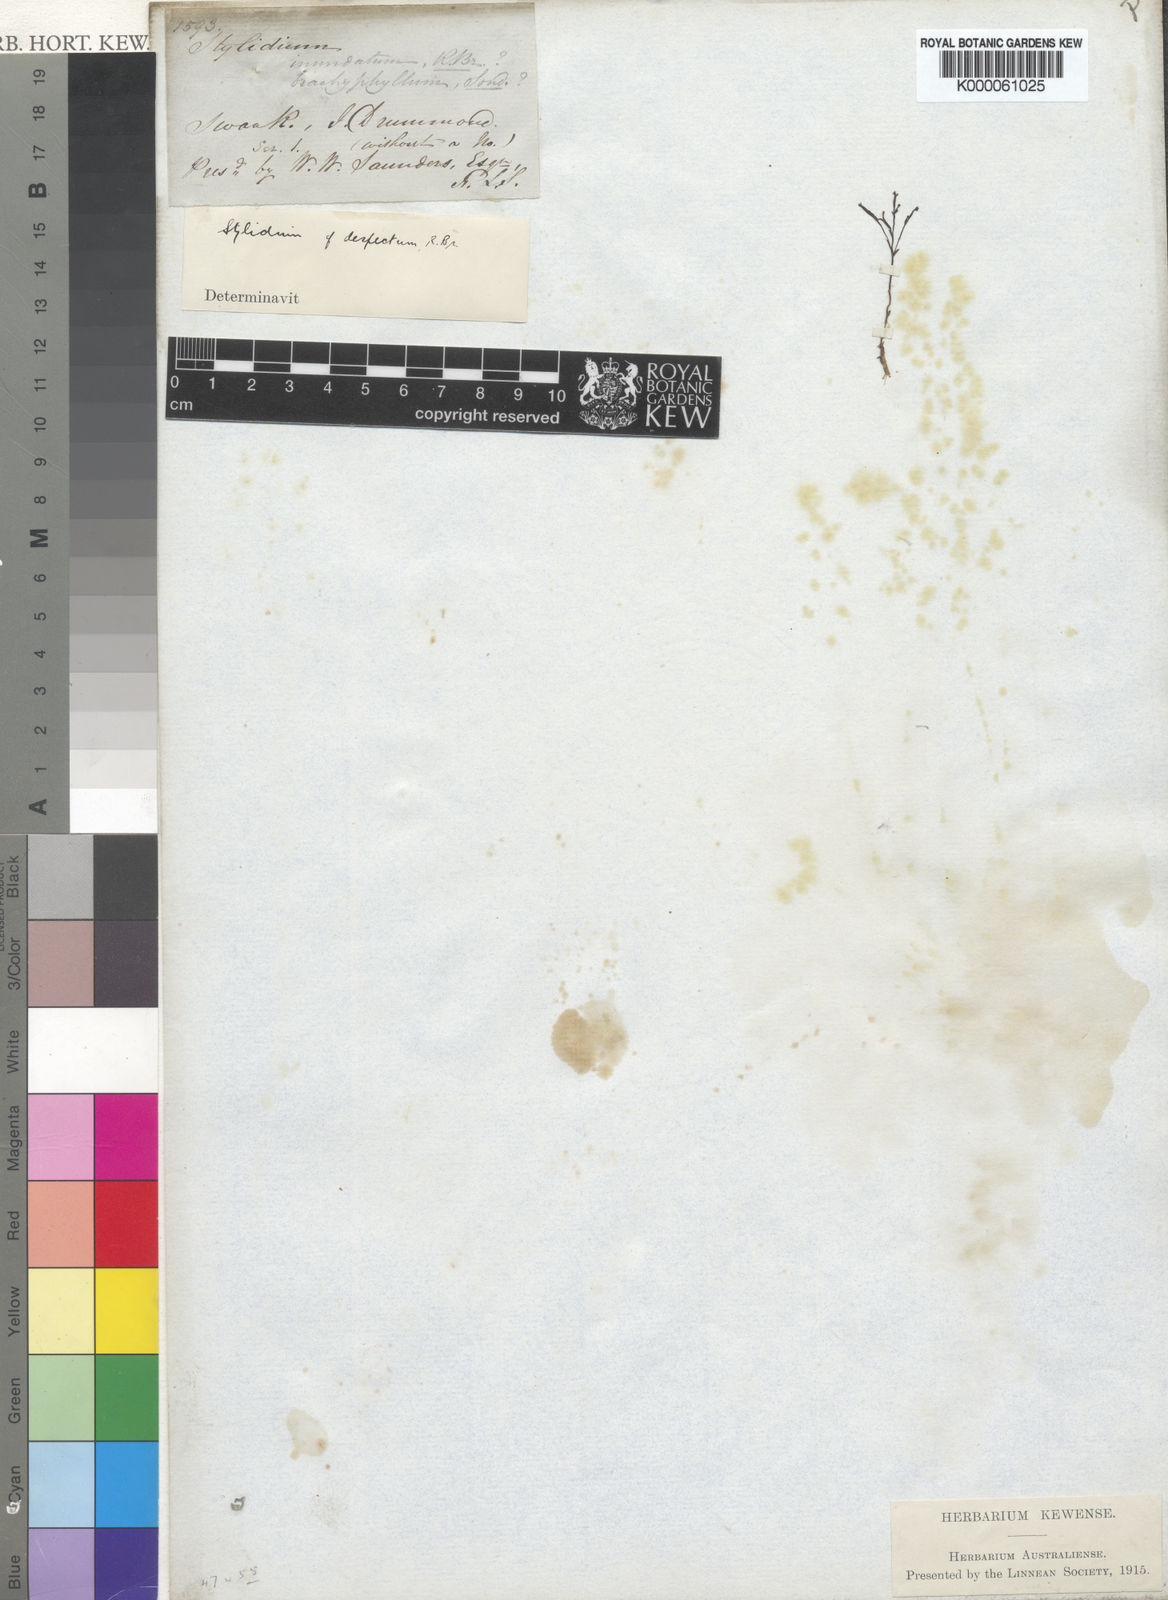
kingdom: Plantae
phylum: Tracheophyta
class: Magnoliopsida
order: Asterales
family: Stylidiaceae
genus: Stylidium
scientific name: Stylidium despectum
